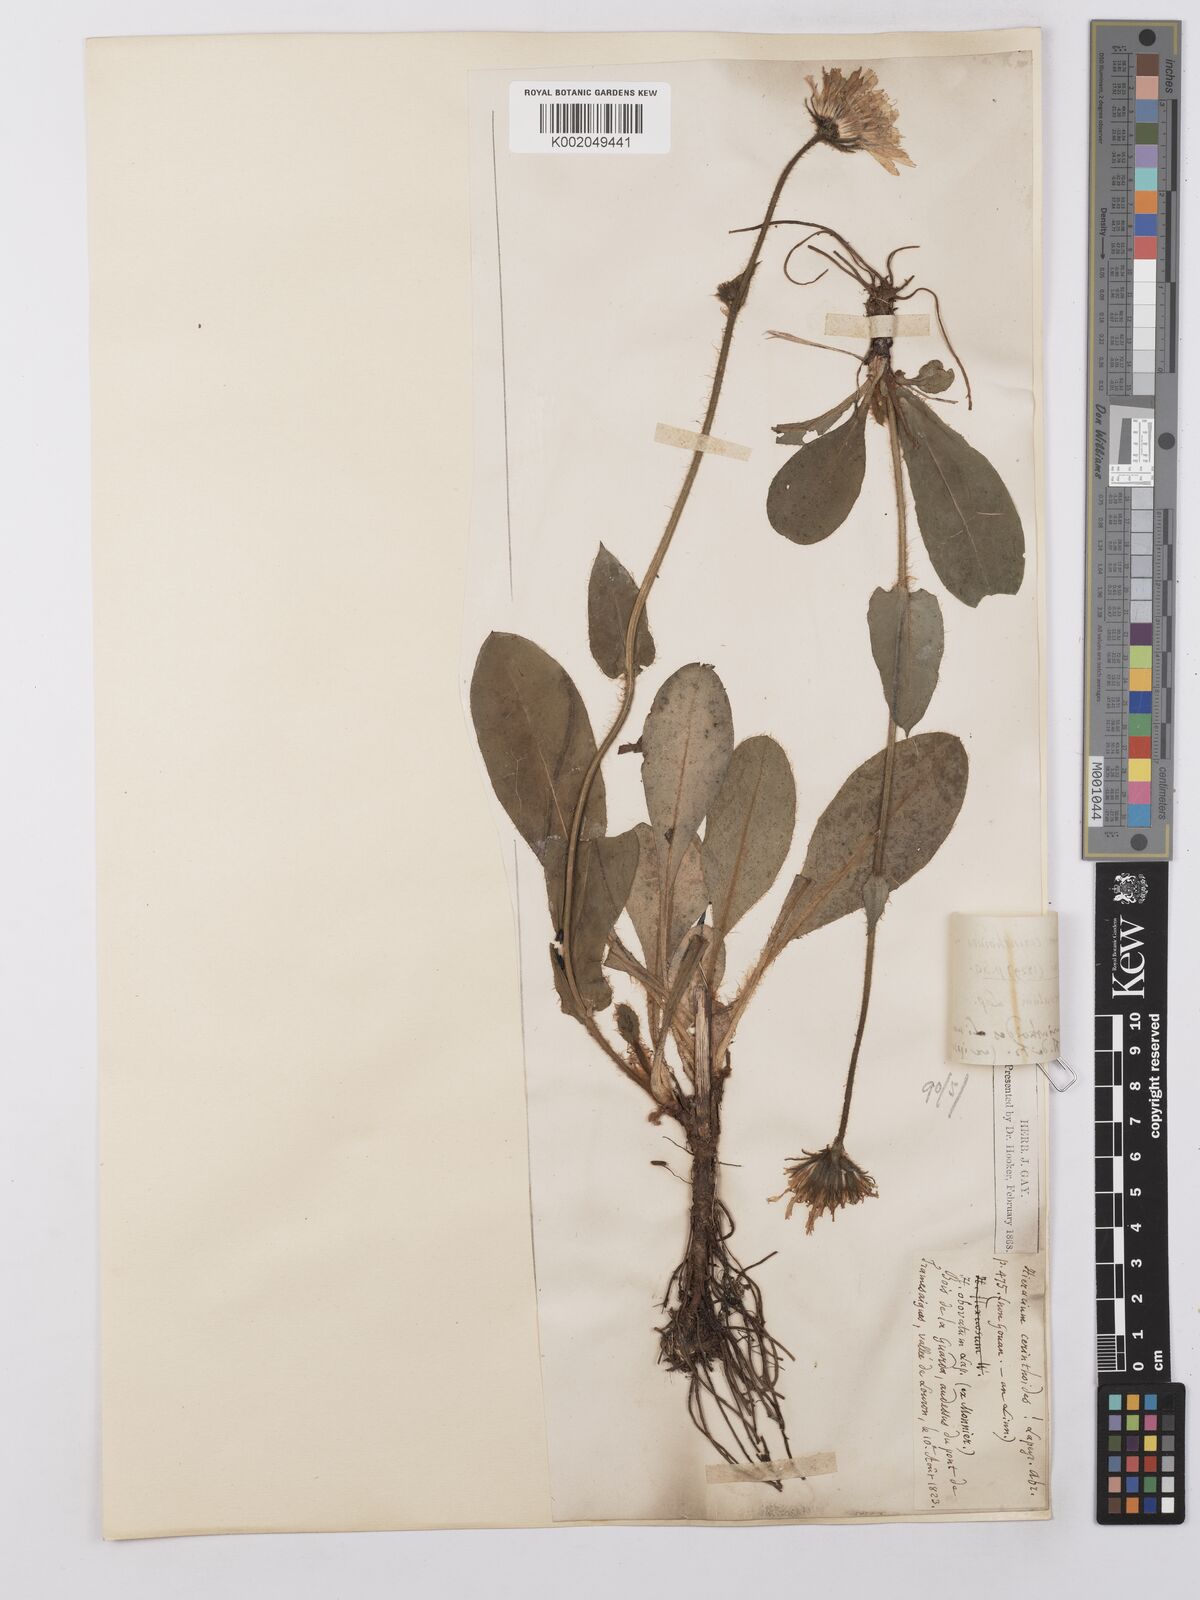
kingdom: Plantae
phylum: Tracheophyta
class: Magnoliopsida
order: Asterales
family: Asteraceae
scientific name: Asteraceae
